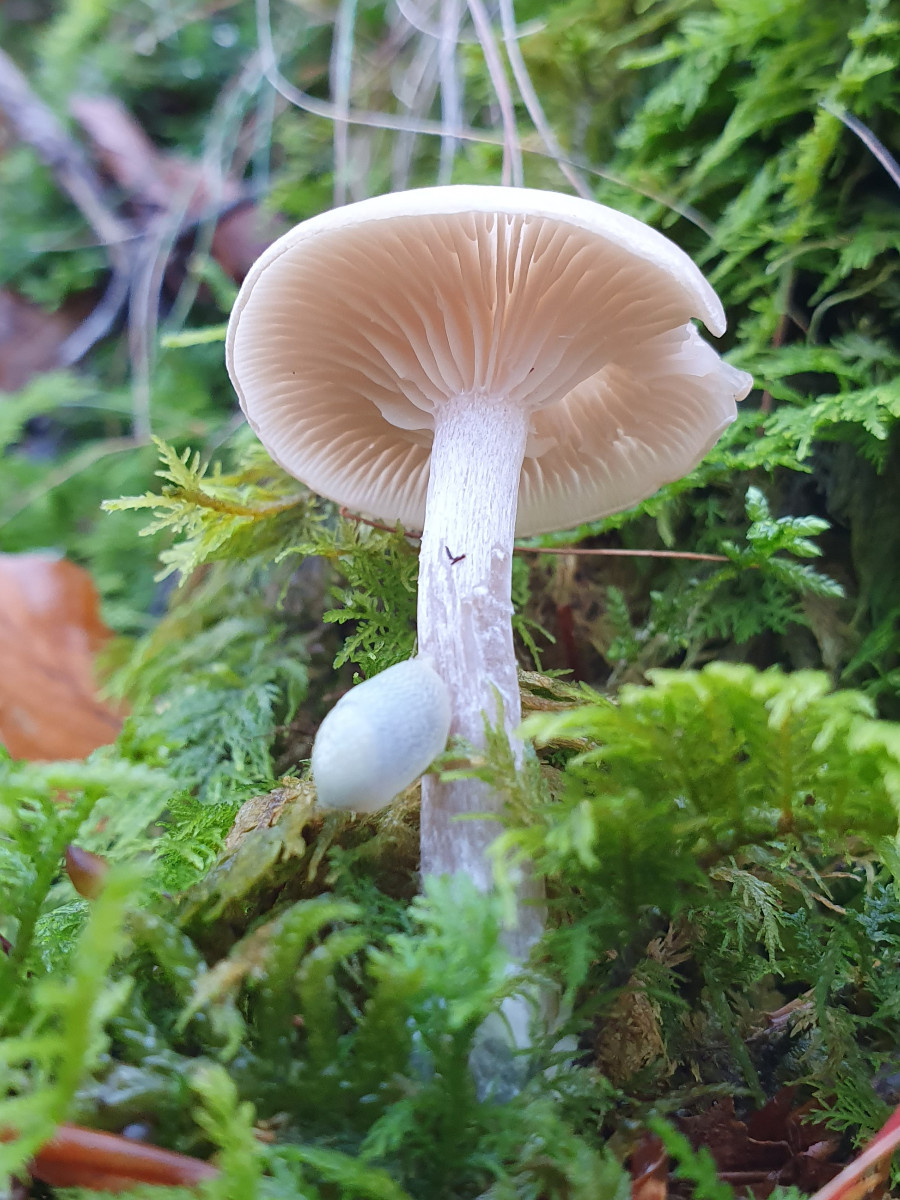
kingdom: Fungi
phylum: Basidiomycota
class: Agaricomycetes
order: Agaricales
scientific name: Agaricales
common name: champignonordenen
